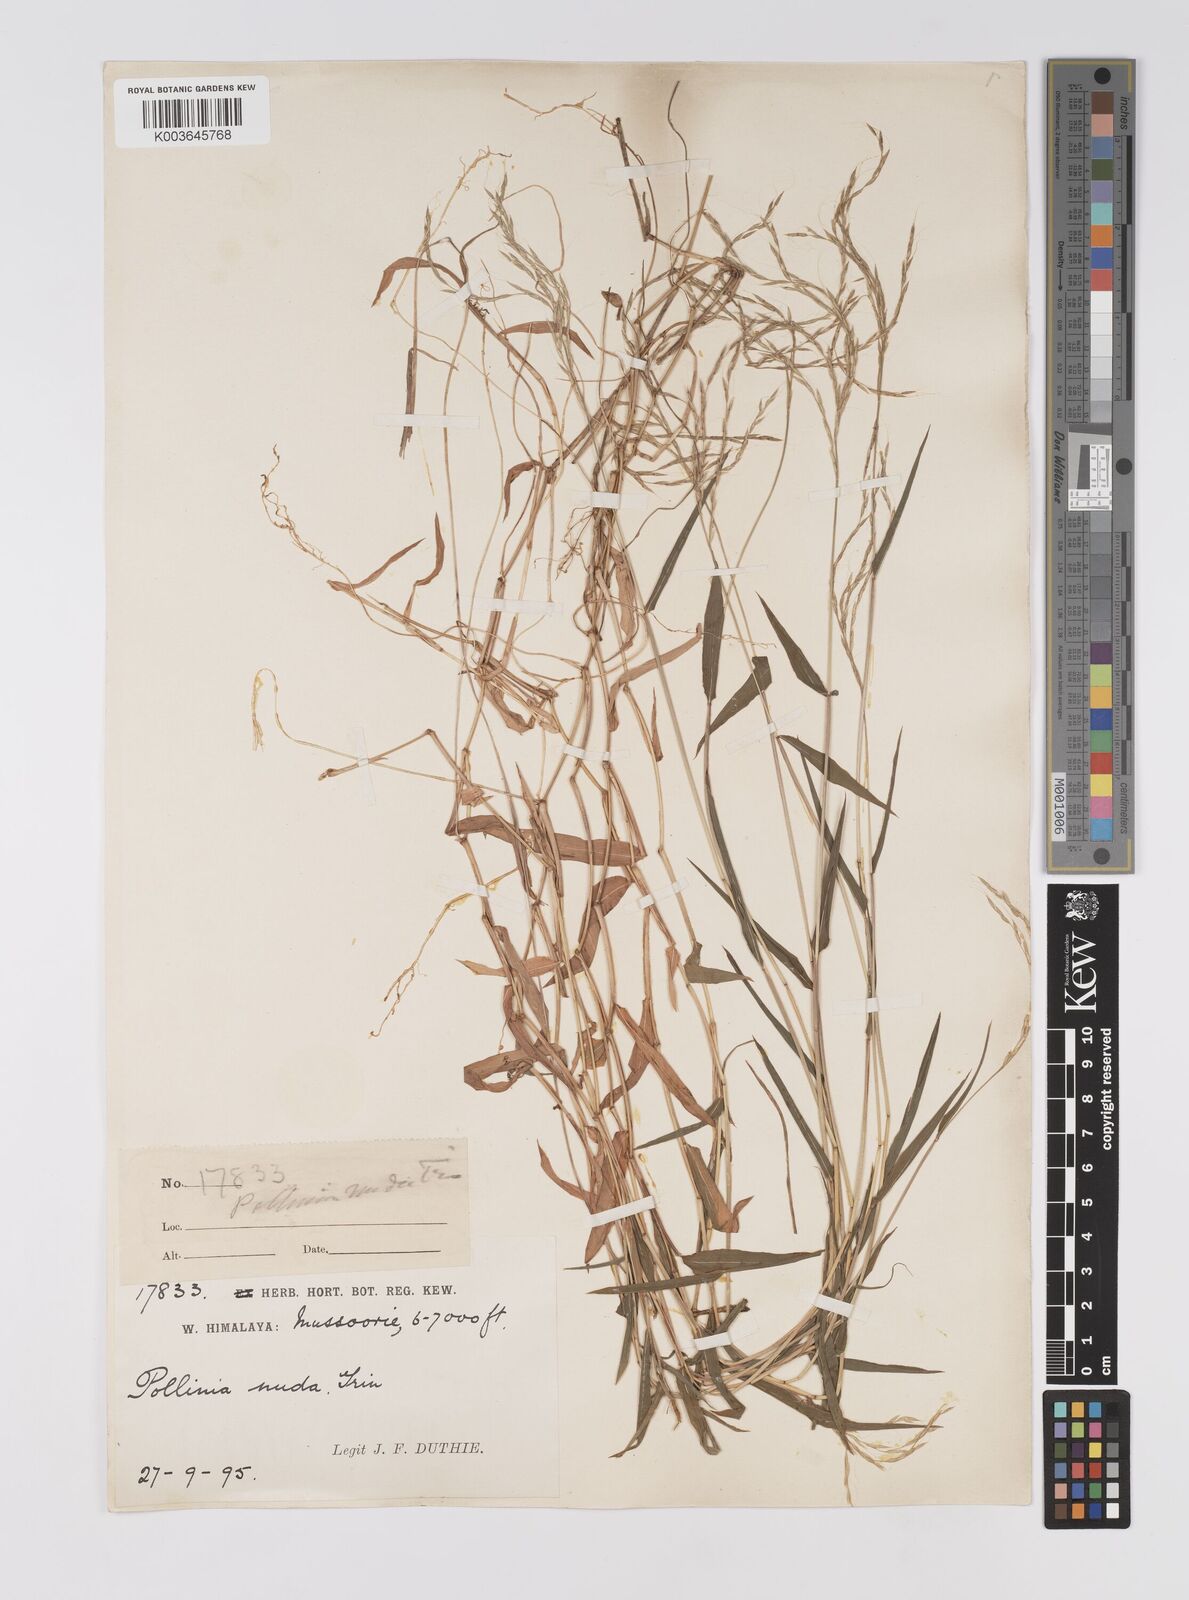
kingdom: Plantae
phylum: Tracheophyta
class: Liliopsida
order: Poales
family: Poaceae
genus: Microstegium
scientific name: Microstegium nudum
